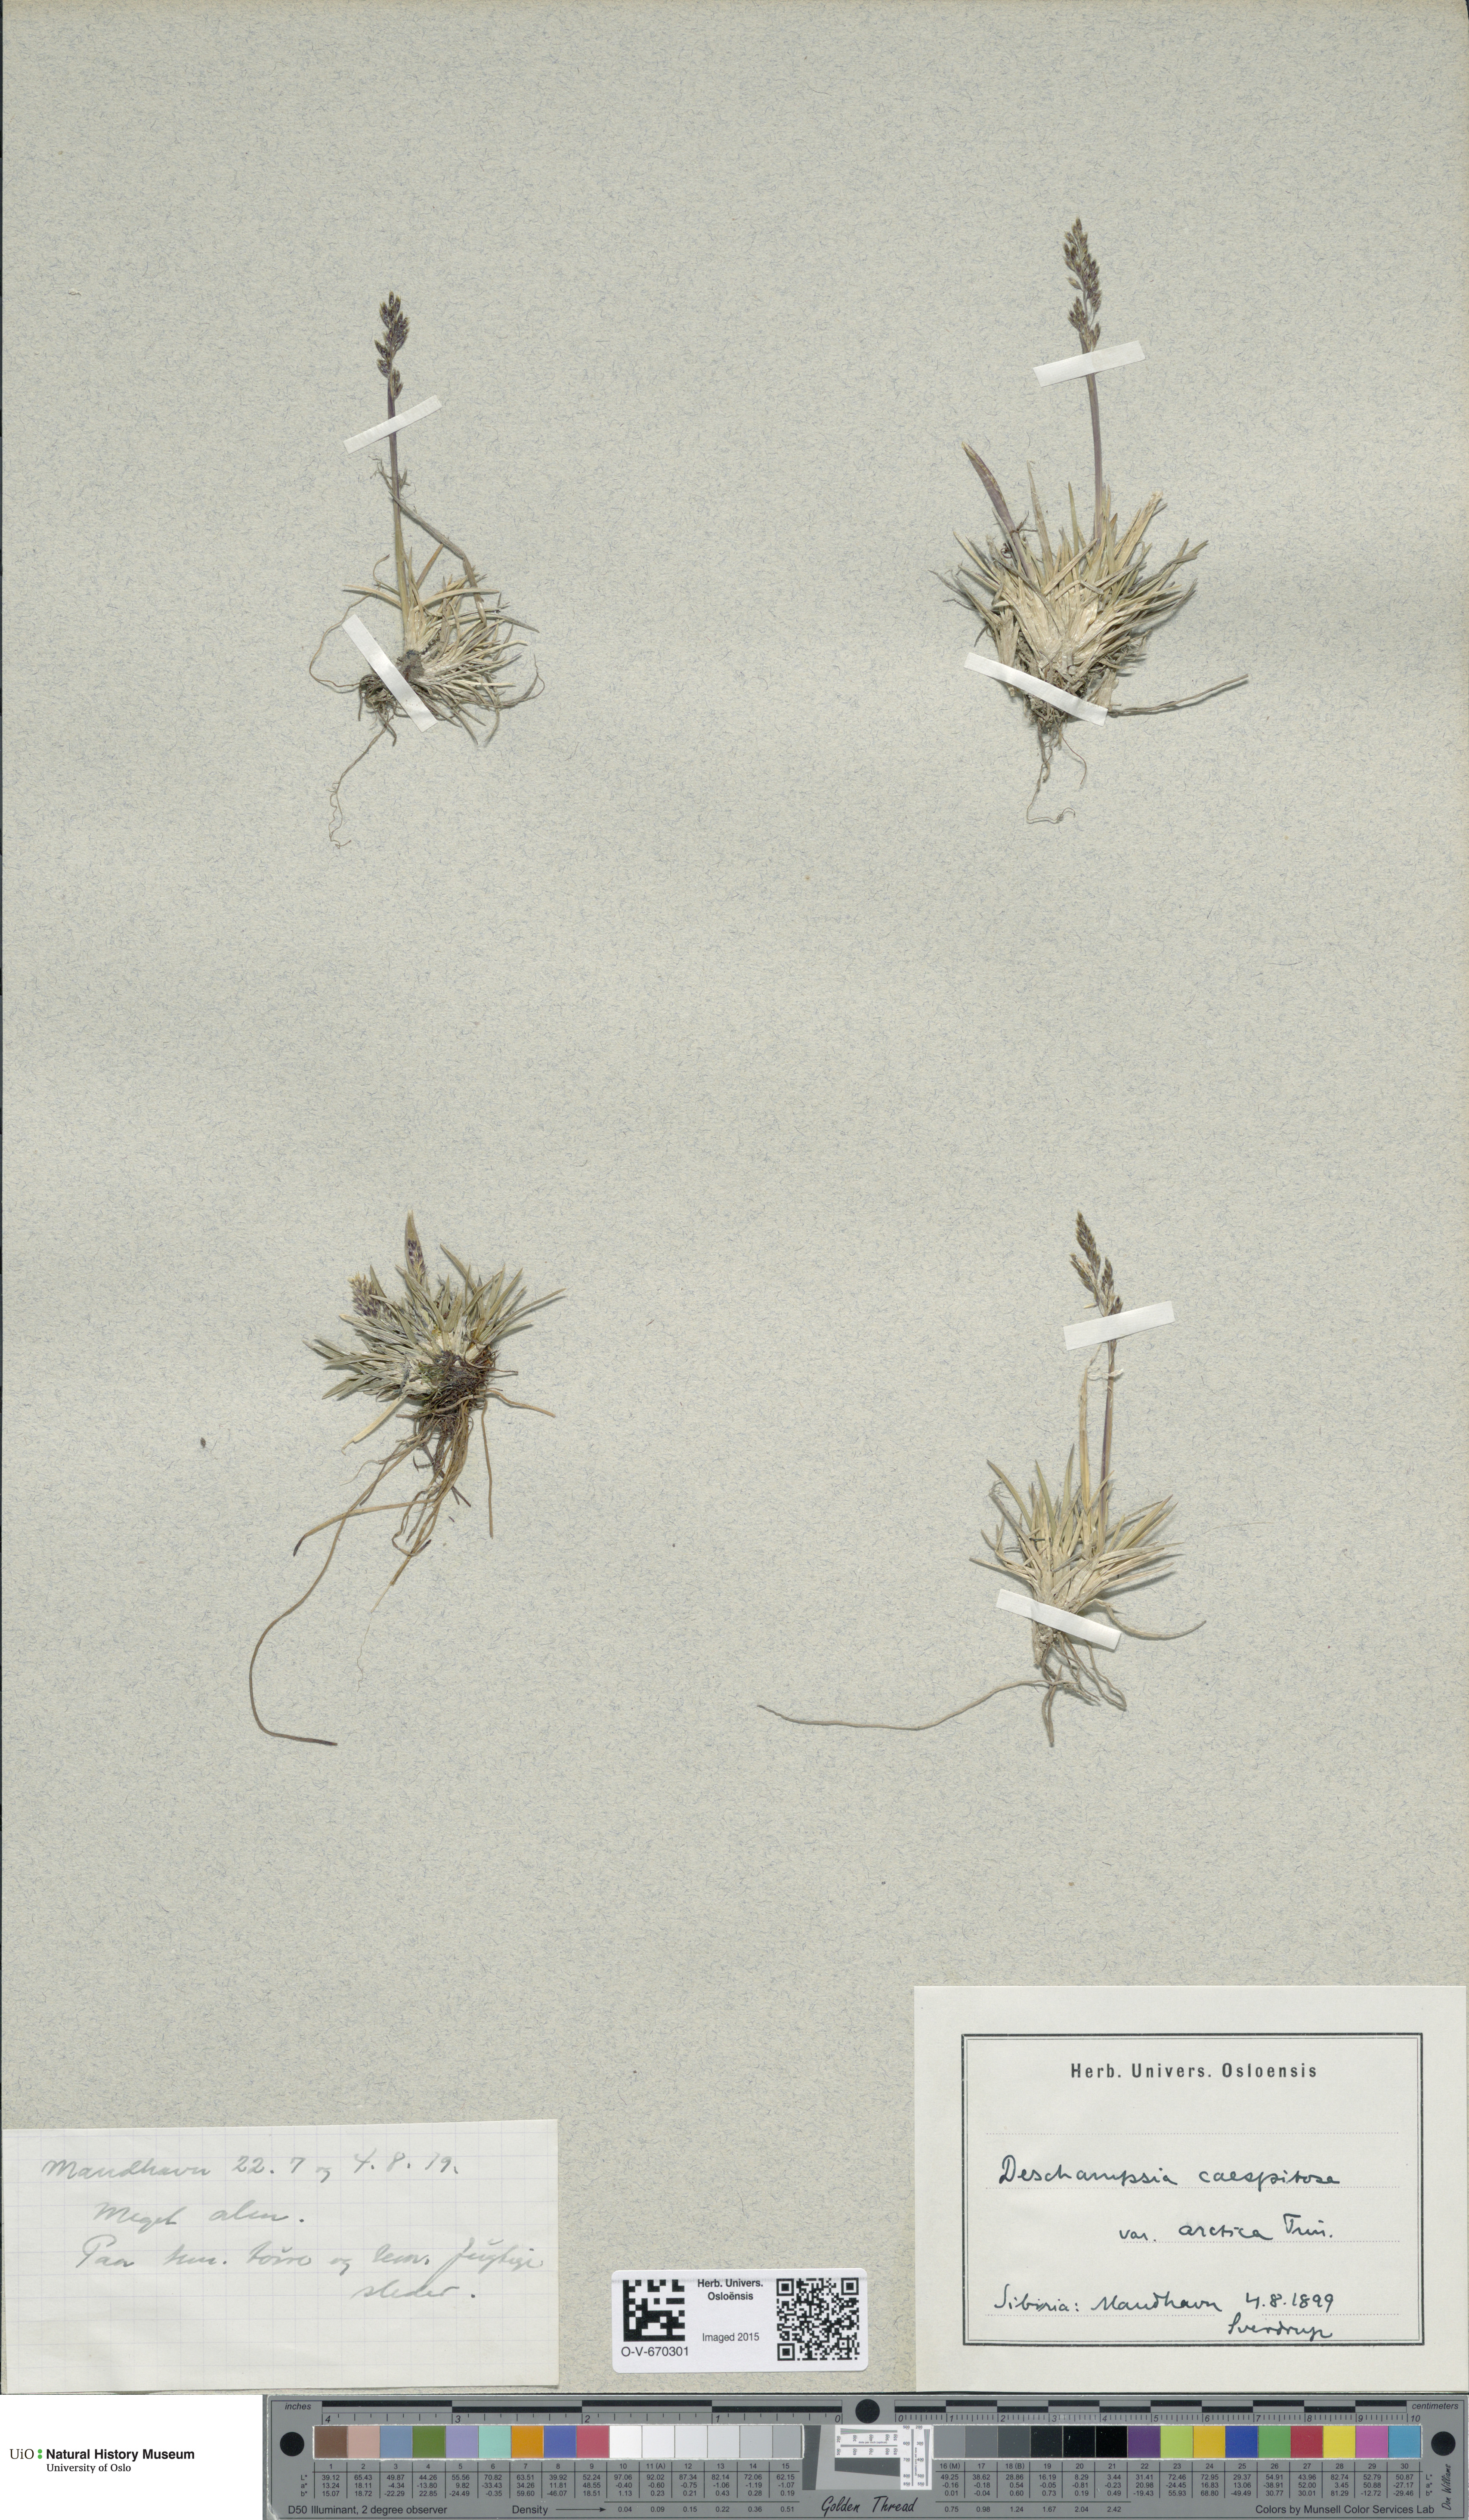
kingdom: Plantae
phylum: Tracheophyta
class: Liliopsida
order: Poales
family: Poaceae
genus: Deschampsia
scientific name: Deschampsia cespitosa
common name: Tufted hair-grass
